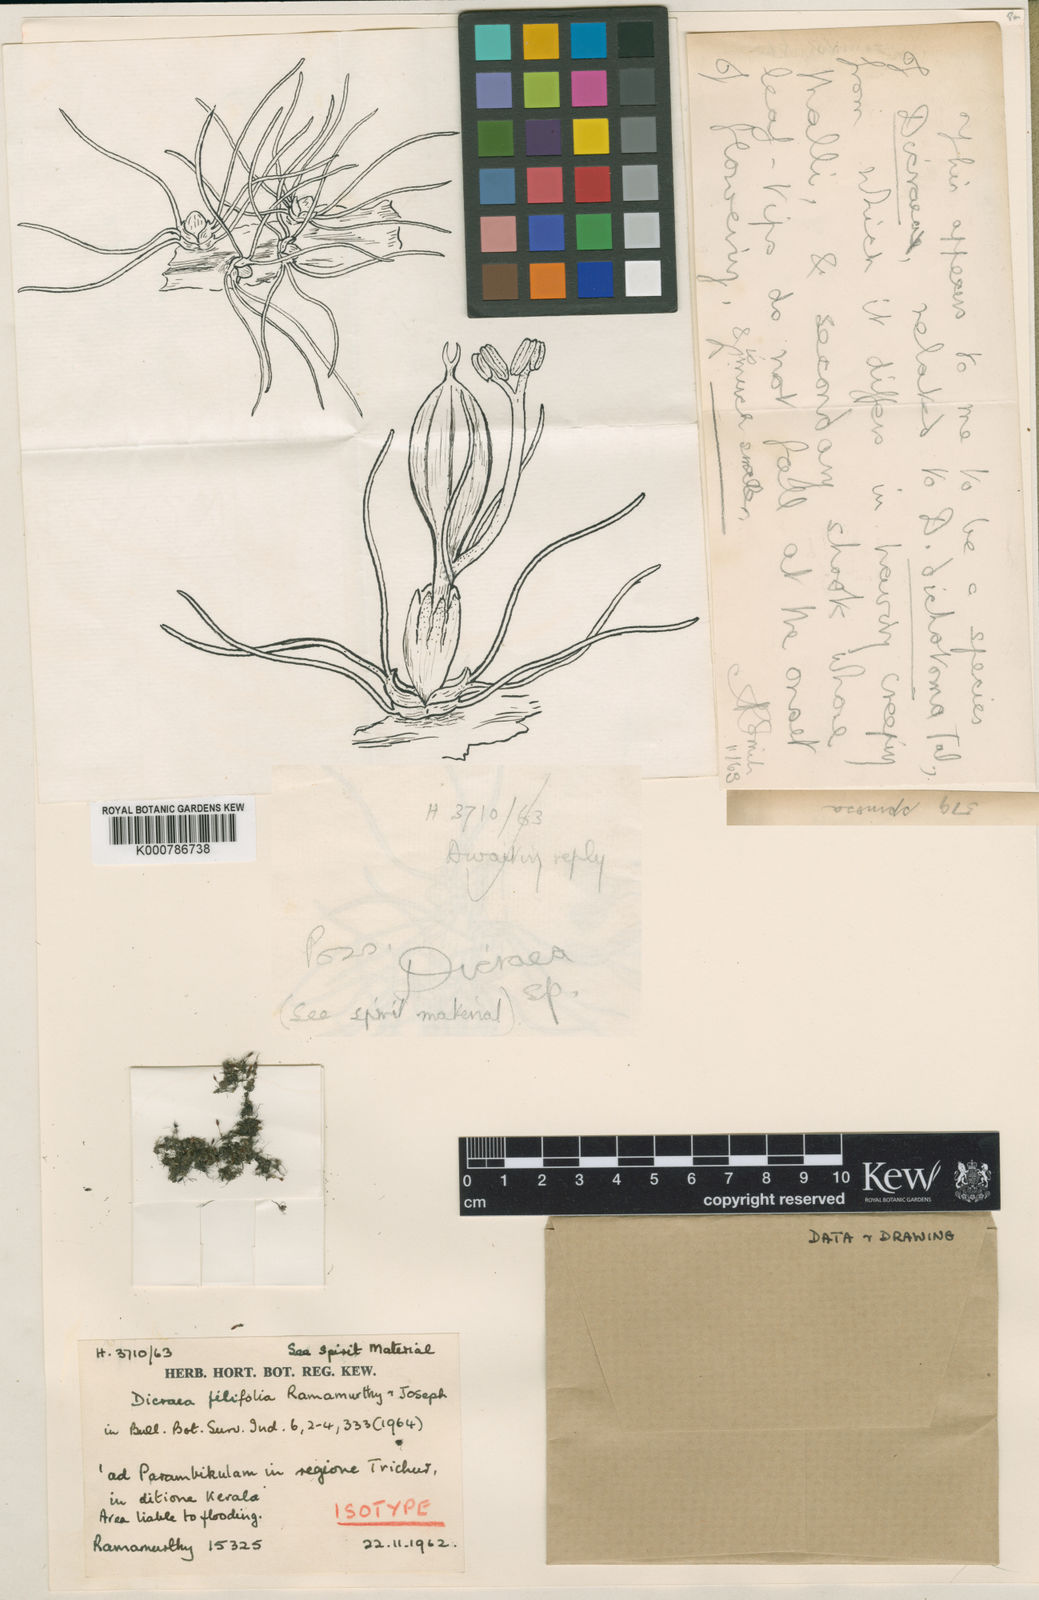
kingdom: Plantae
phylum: Tracheophyta
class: Magnoliopsida
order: Malpighiales
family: Podostemaceae
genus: Polypleurum
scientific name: Polypleurum filifolium
